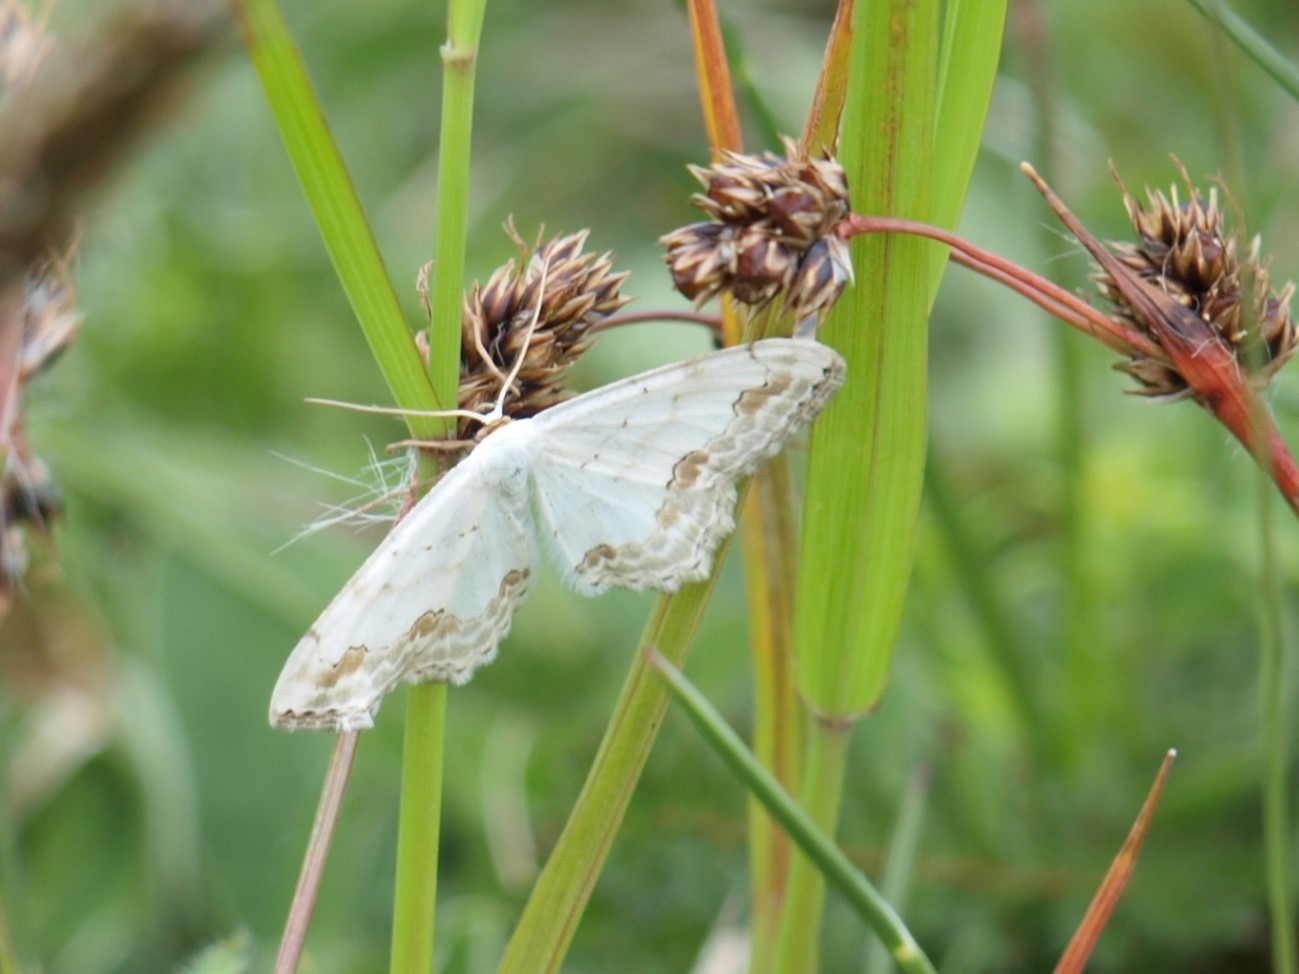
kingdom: Animalia
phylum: Arthropoda
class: Insecta
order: Lepidoptera
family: Geometridae
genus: Scopula
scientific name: Scopula ornata
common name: Pyntelig løvmåler
